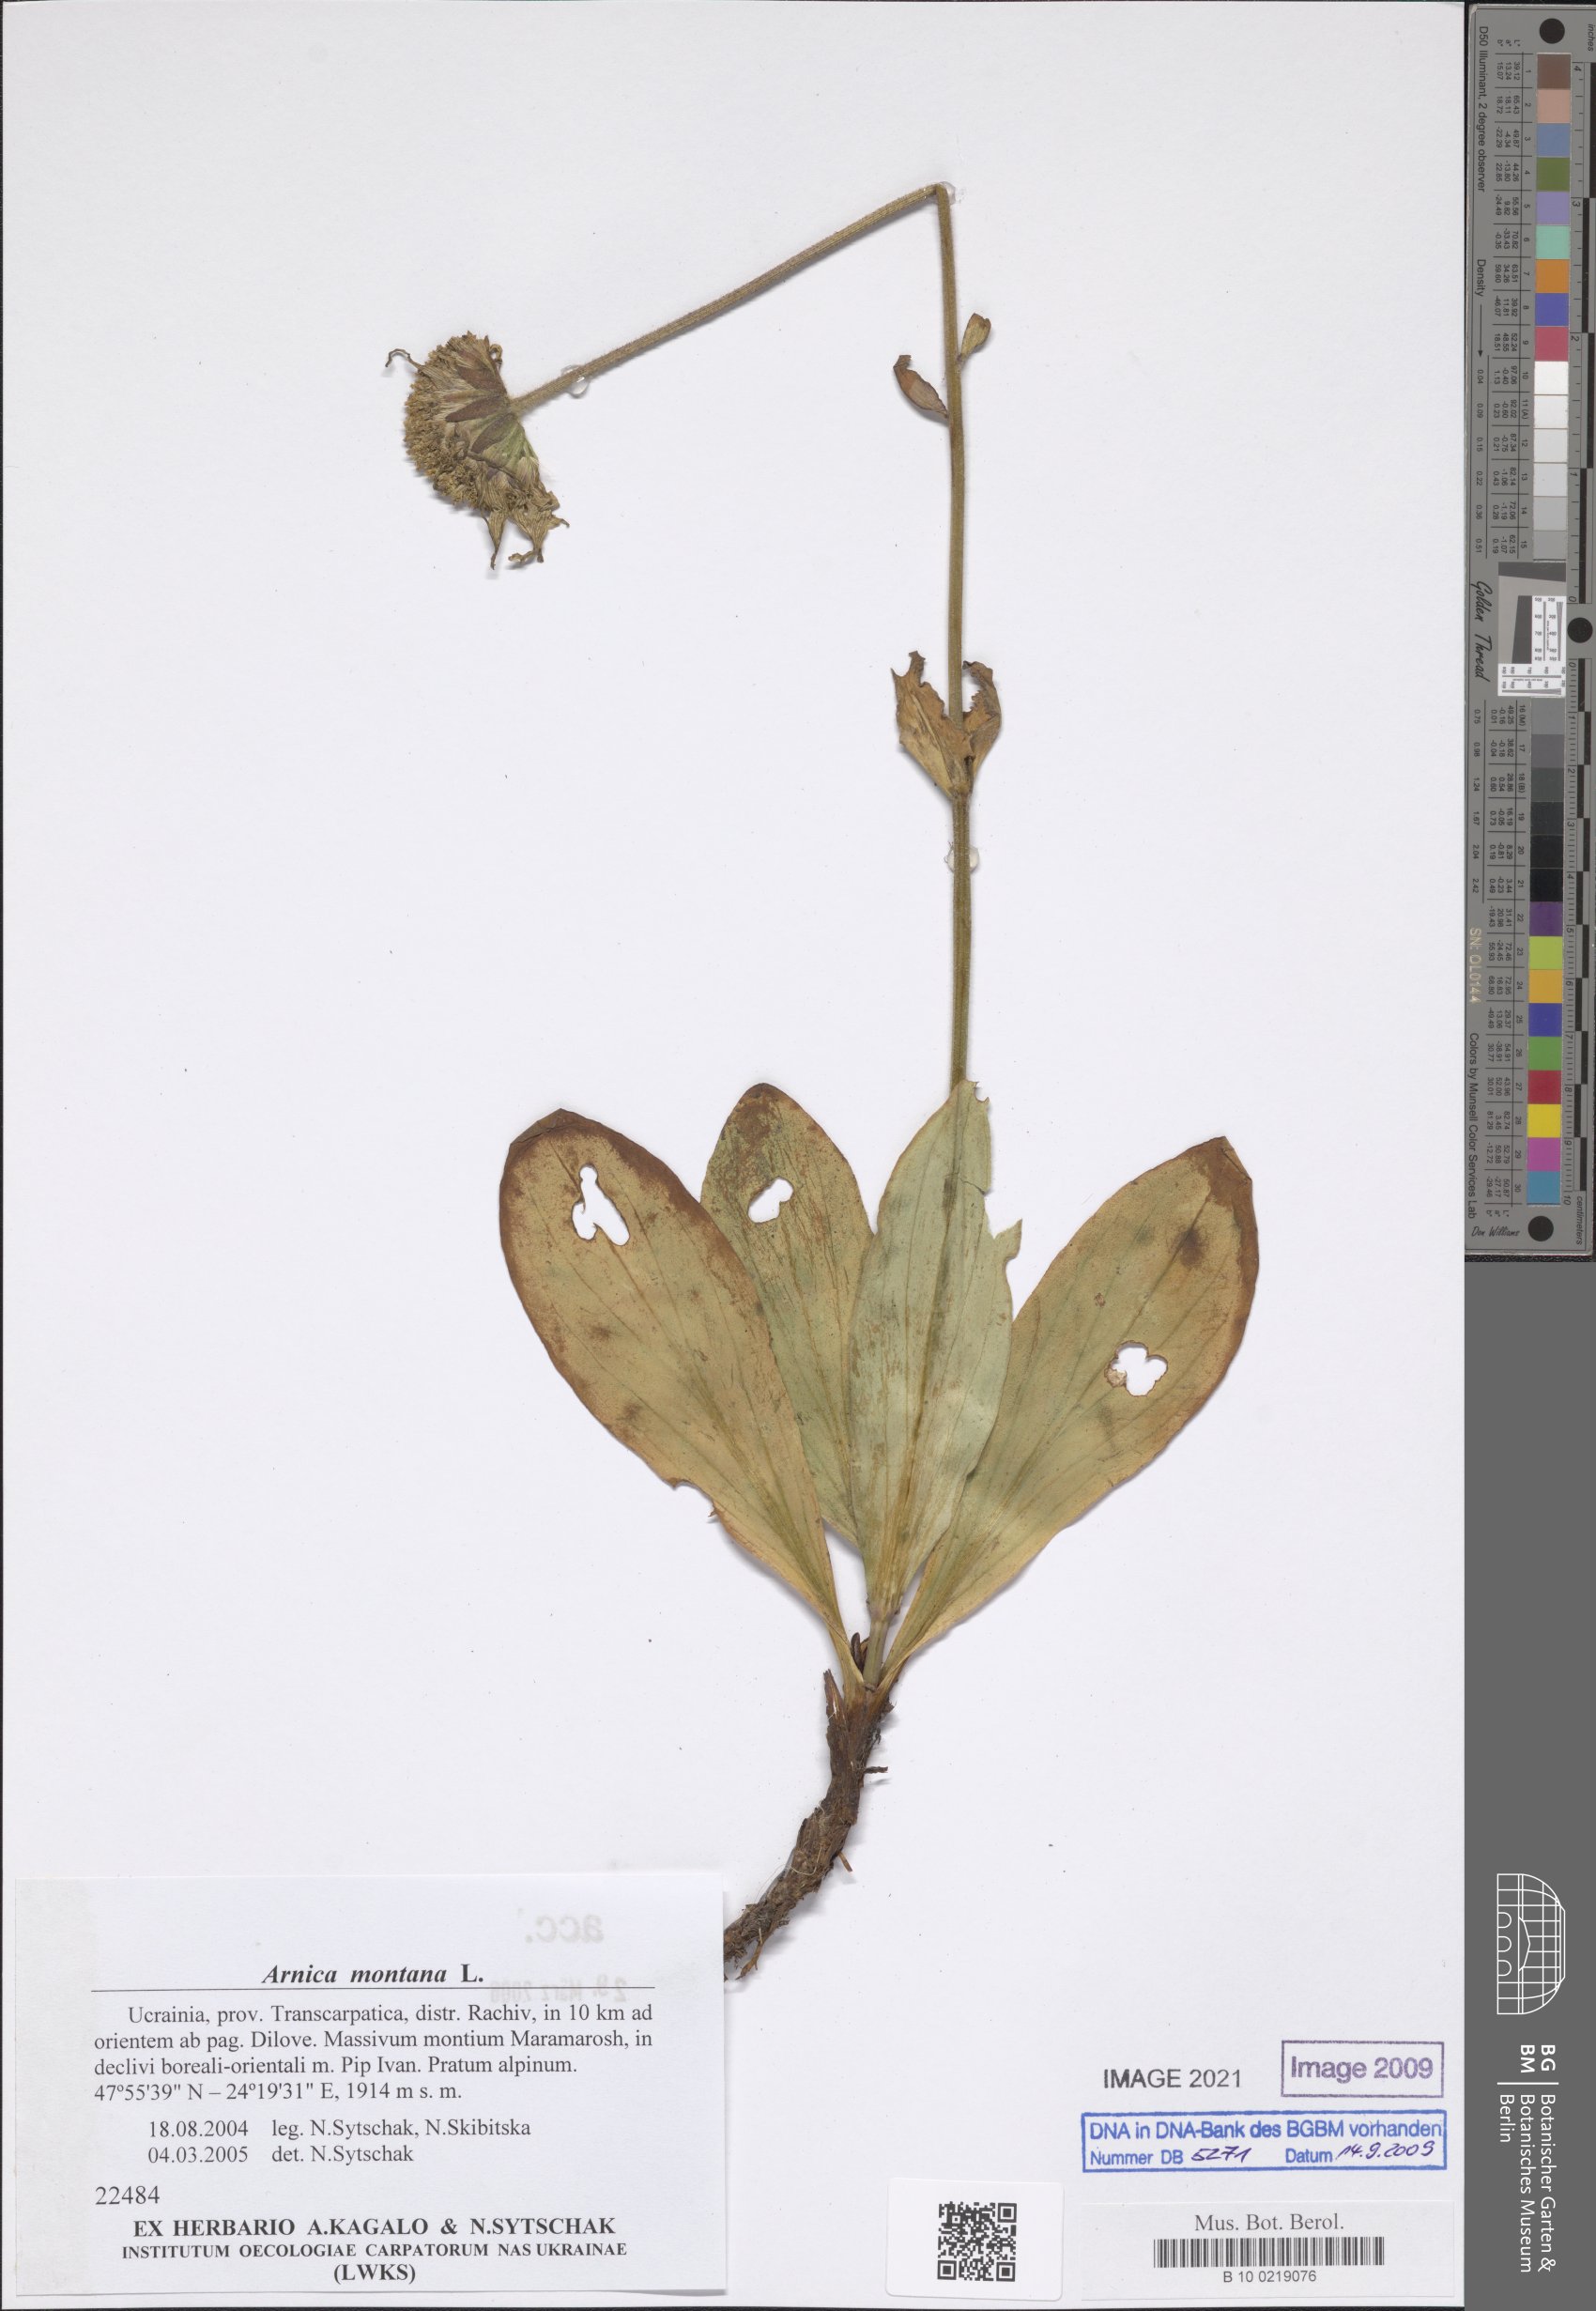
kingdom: Plantae
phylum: Tracheophyta
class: Magnoliopsida
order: Asterales
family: Asteraceae
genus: Arnica
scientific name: Arnica montana
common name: Leopard's bane
